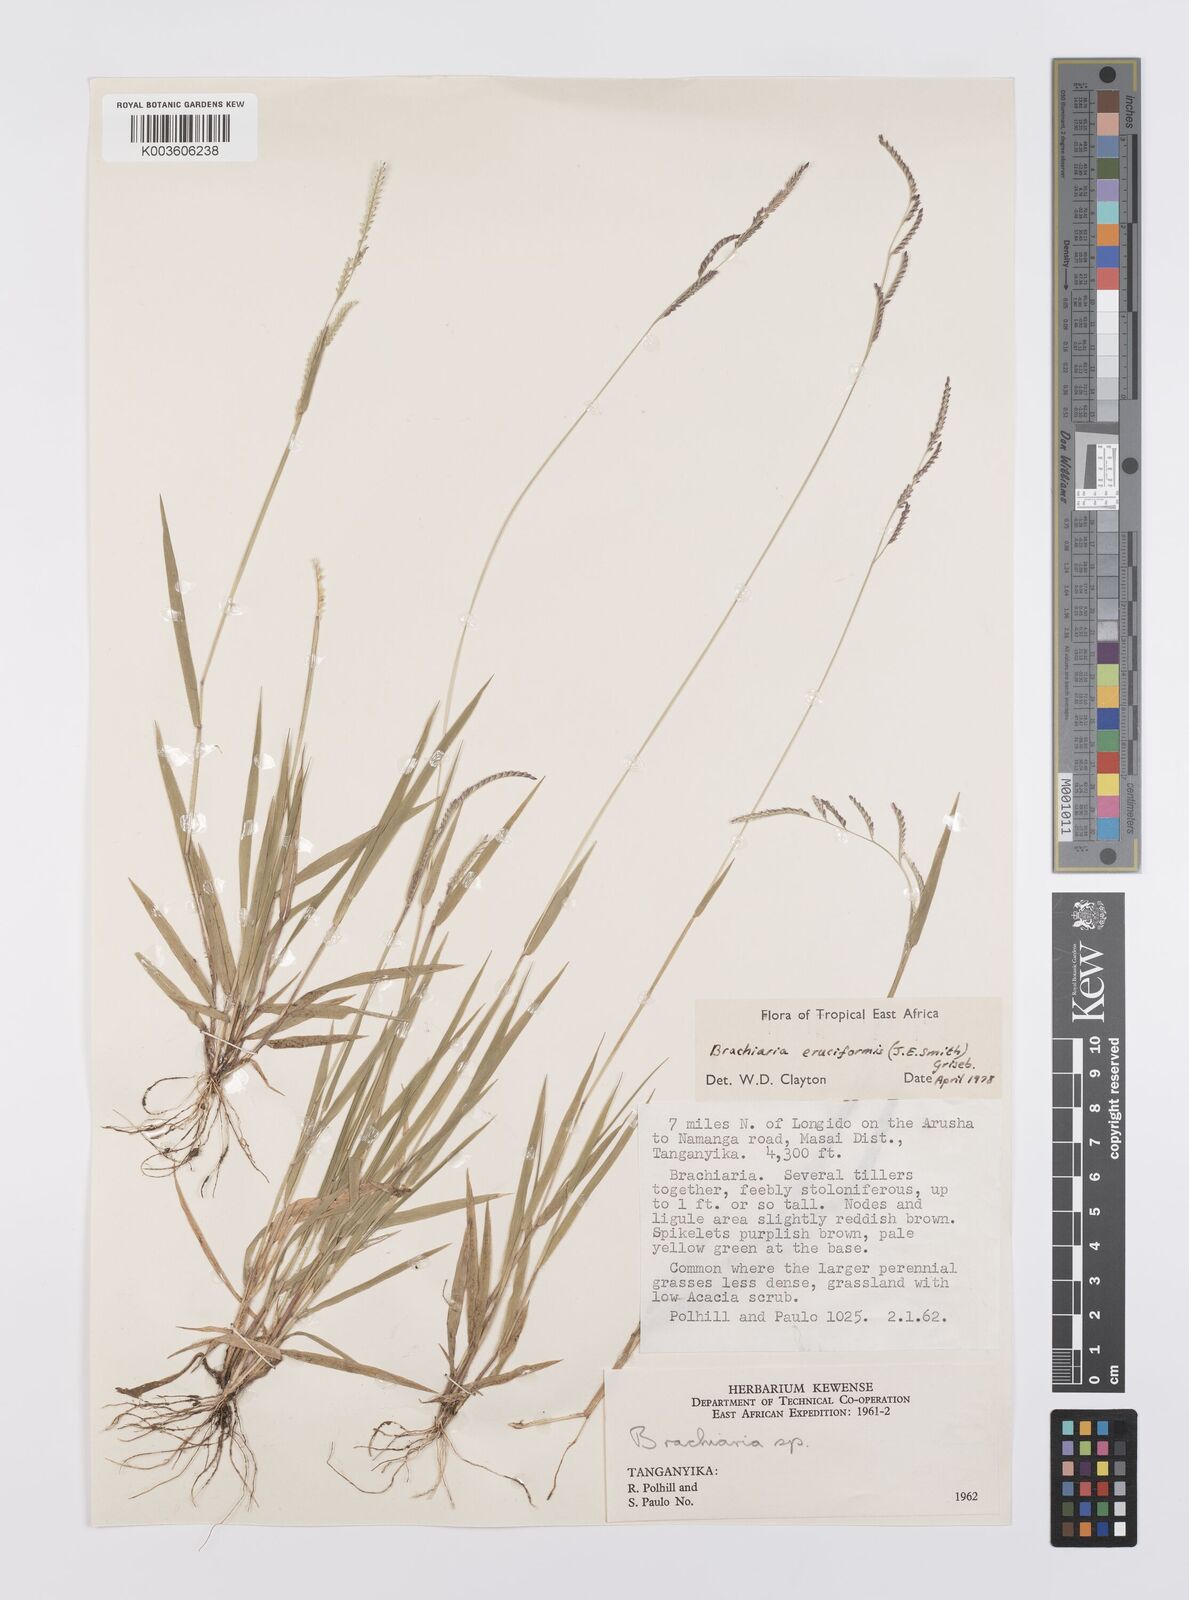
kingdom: Plantae
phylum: Tracheophyta
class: Liliopsida
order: Poales
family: Poaceae
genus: Moorochloa
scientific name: Moorochloa eruciformis
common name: Sweet signalgrass
